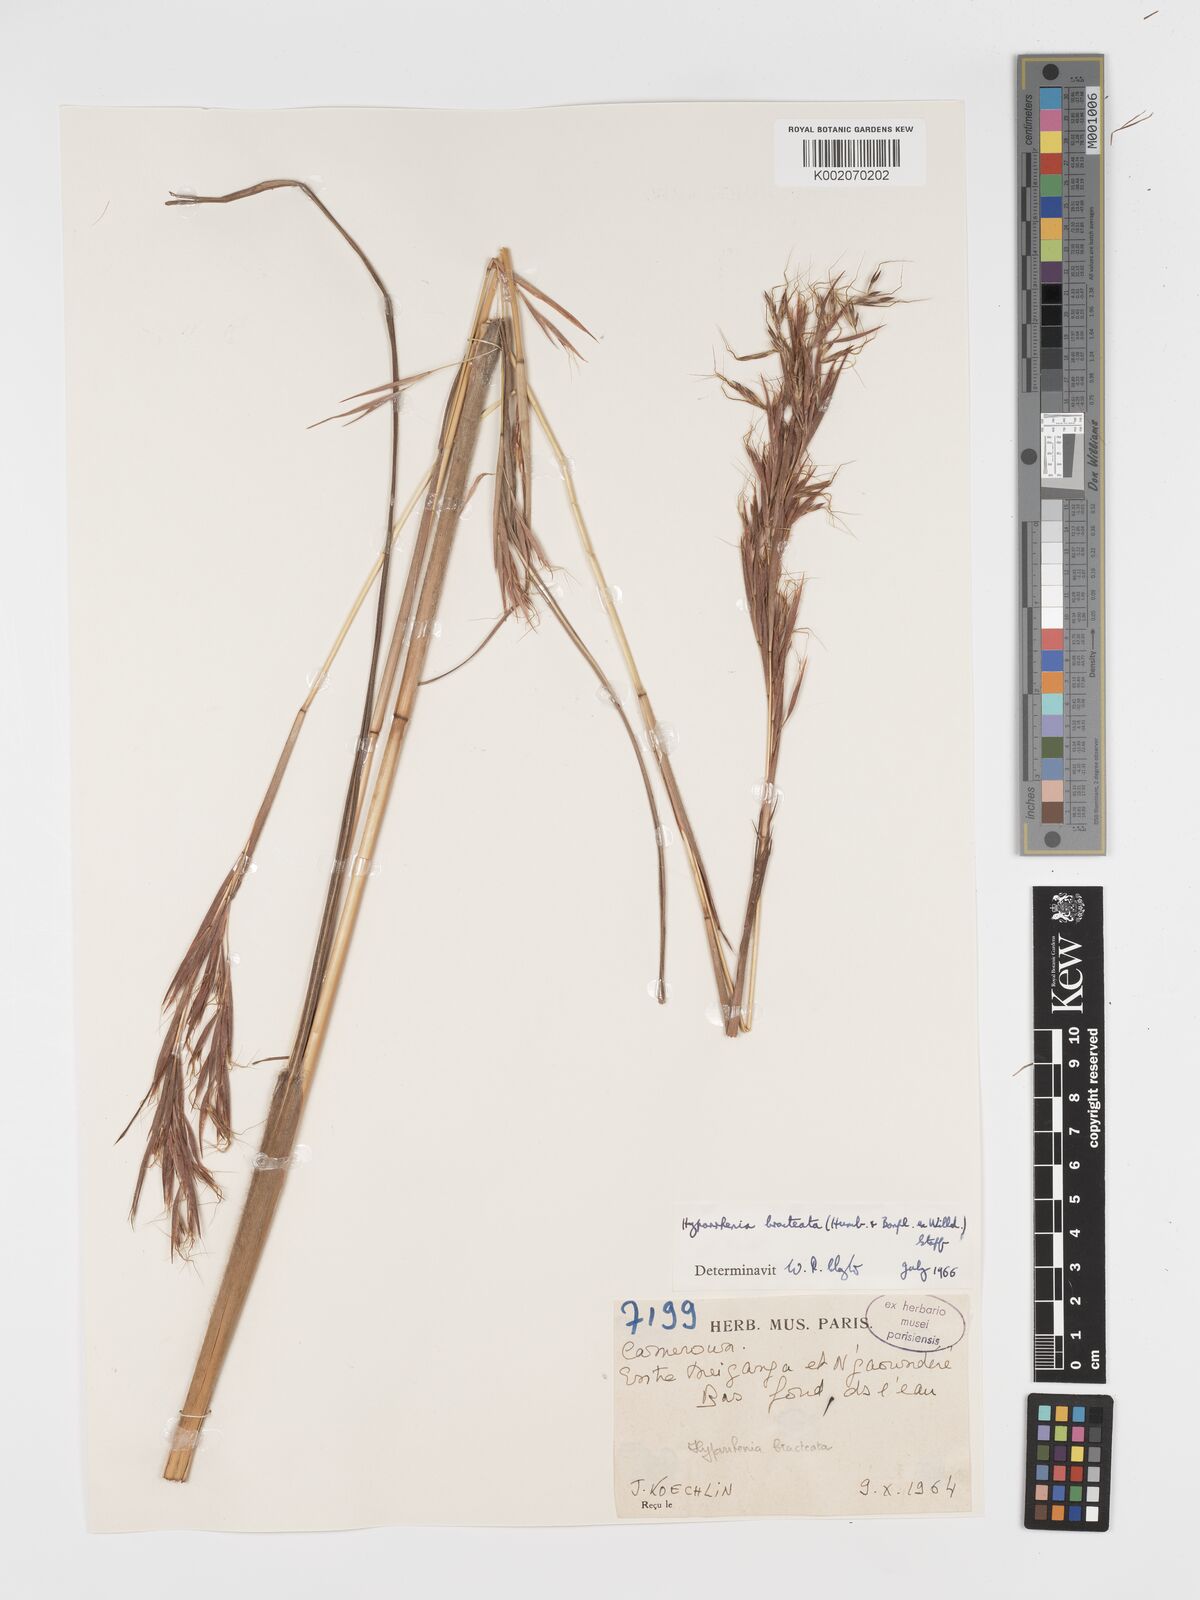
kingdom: Plantae
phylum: Tracheophyta
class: Liliopsida
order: Poales
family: Poaceae
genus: Hyparrhenia
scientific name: Hyparrhenia bracteata
